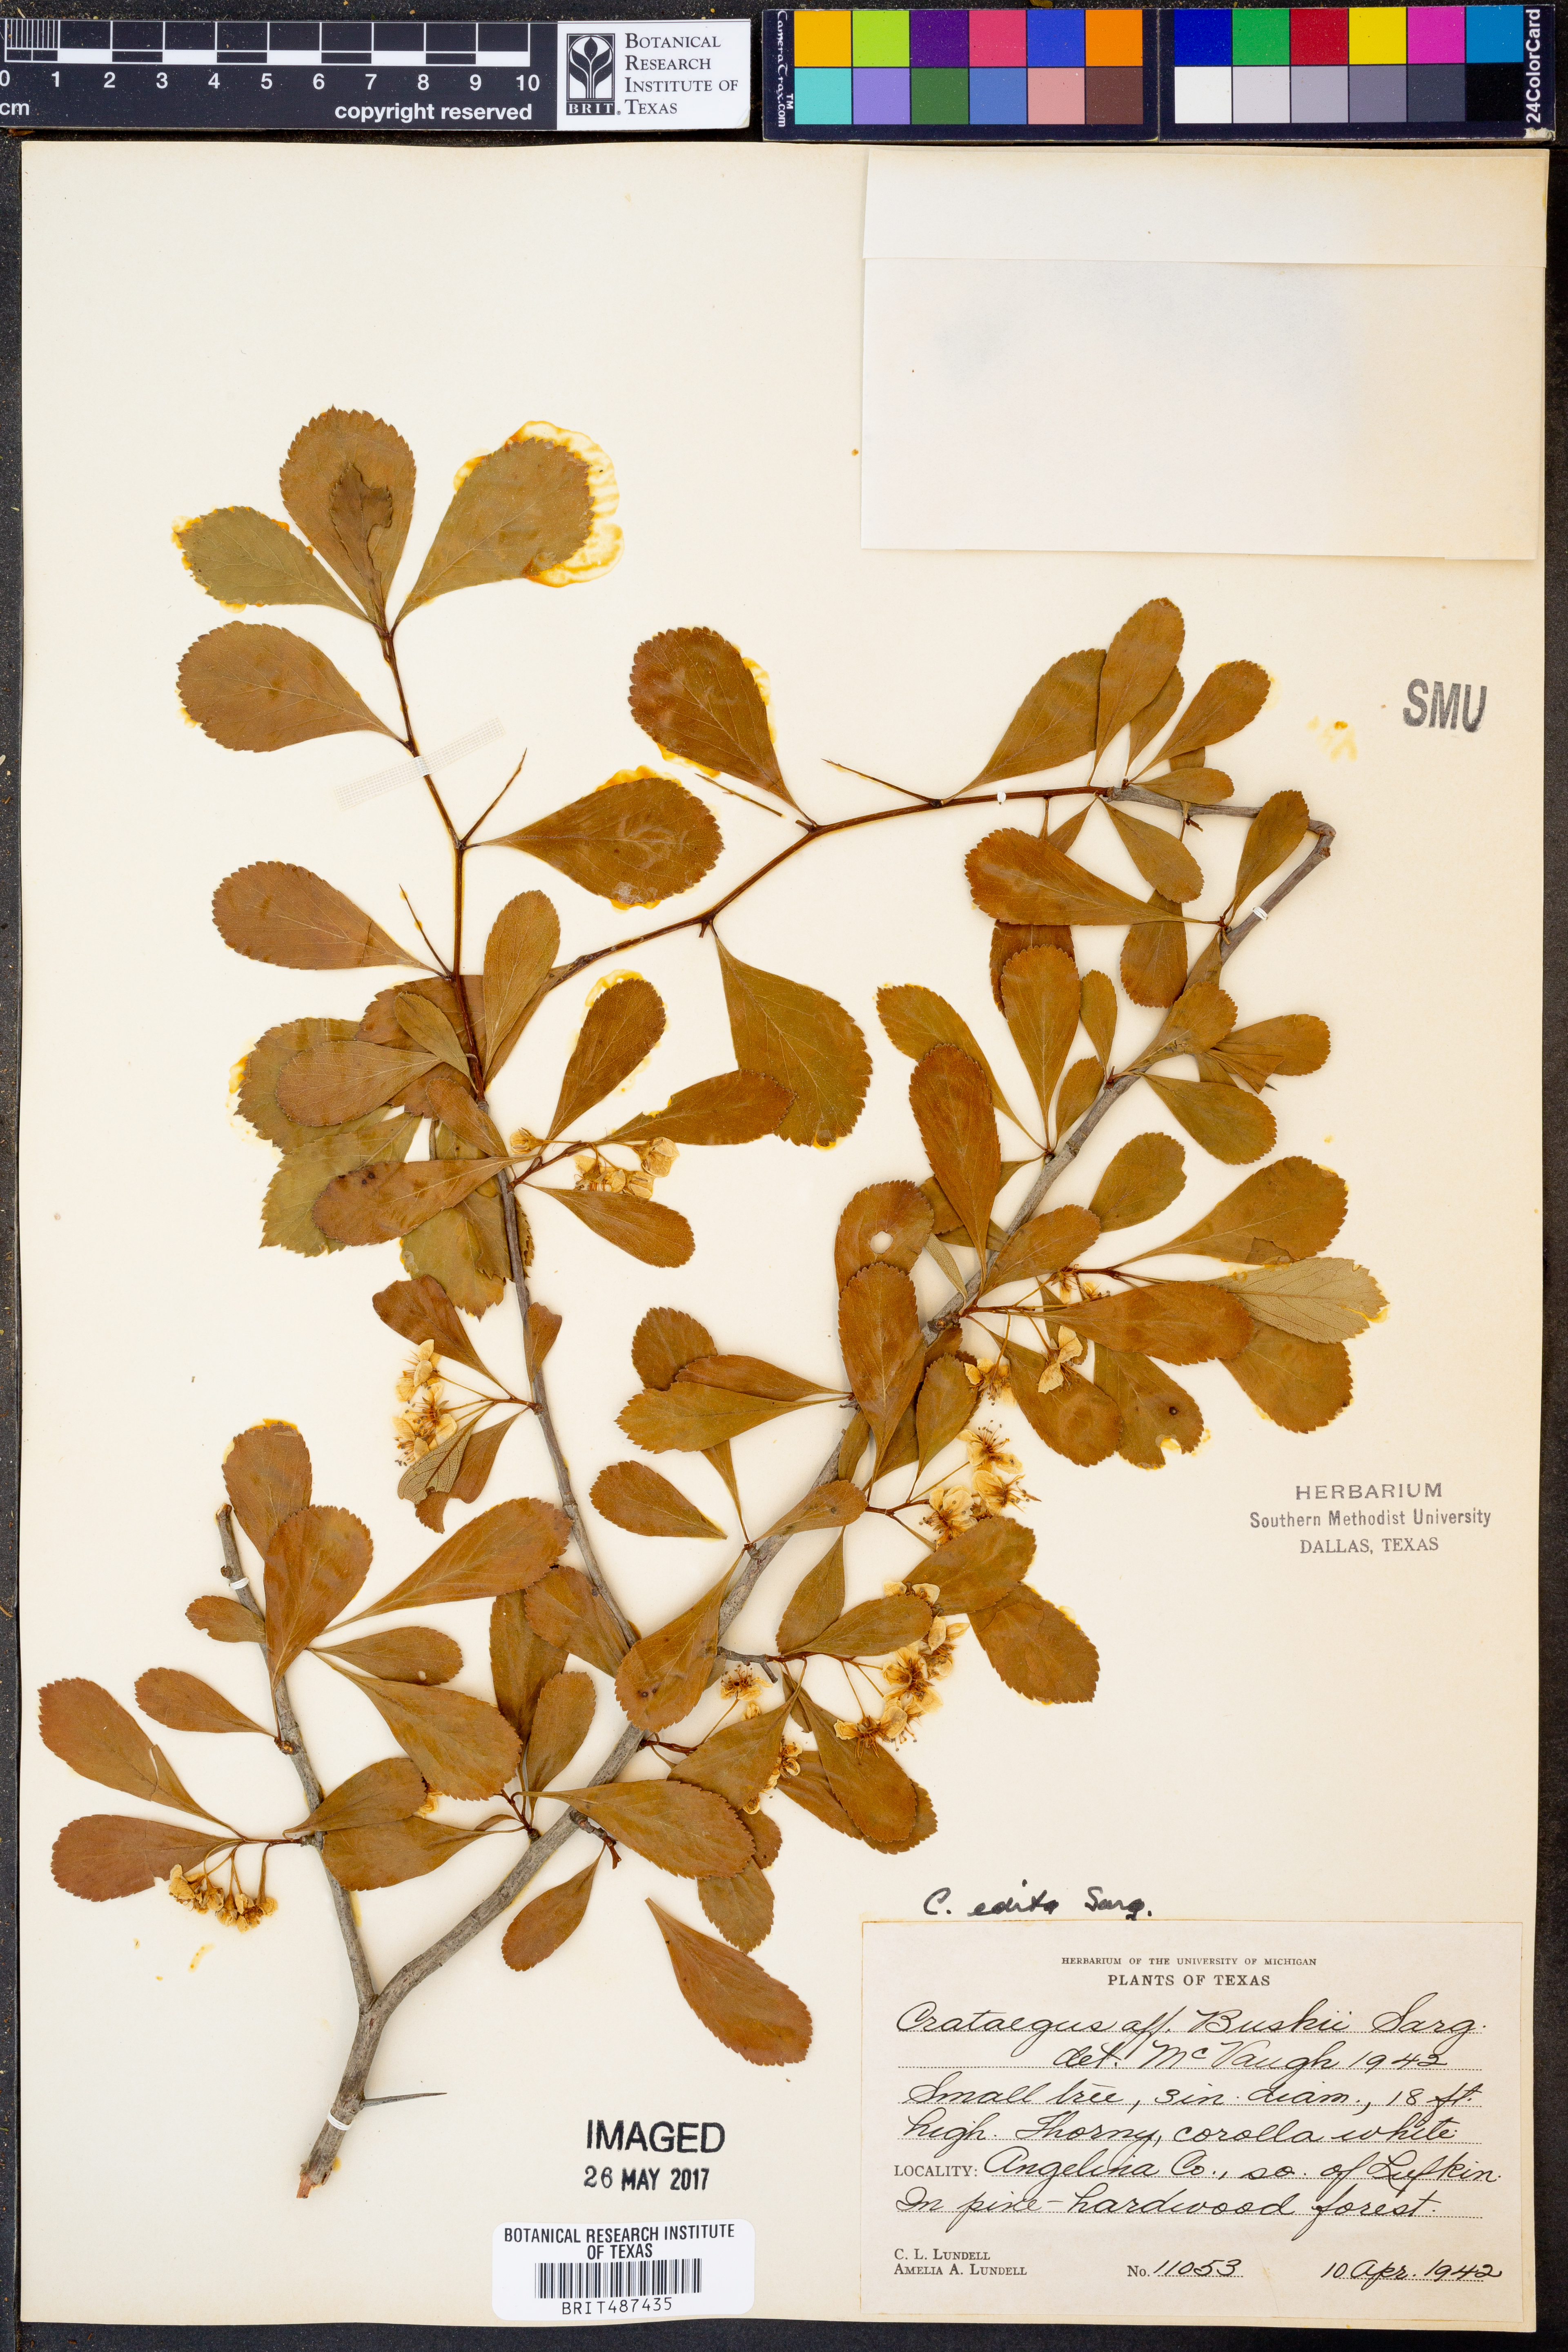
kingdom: Plantae
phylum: Tracheophyta
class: Magnoliopsida
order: Rosales
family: Rosaceae
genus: Crataegus
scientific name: Crataegus crus-galli
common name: Cockspurthorn
